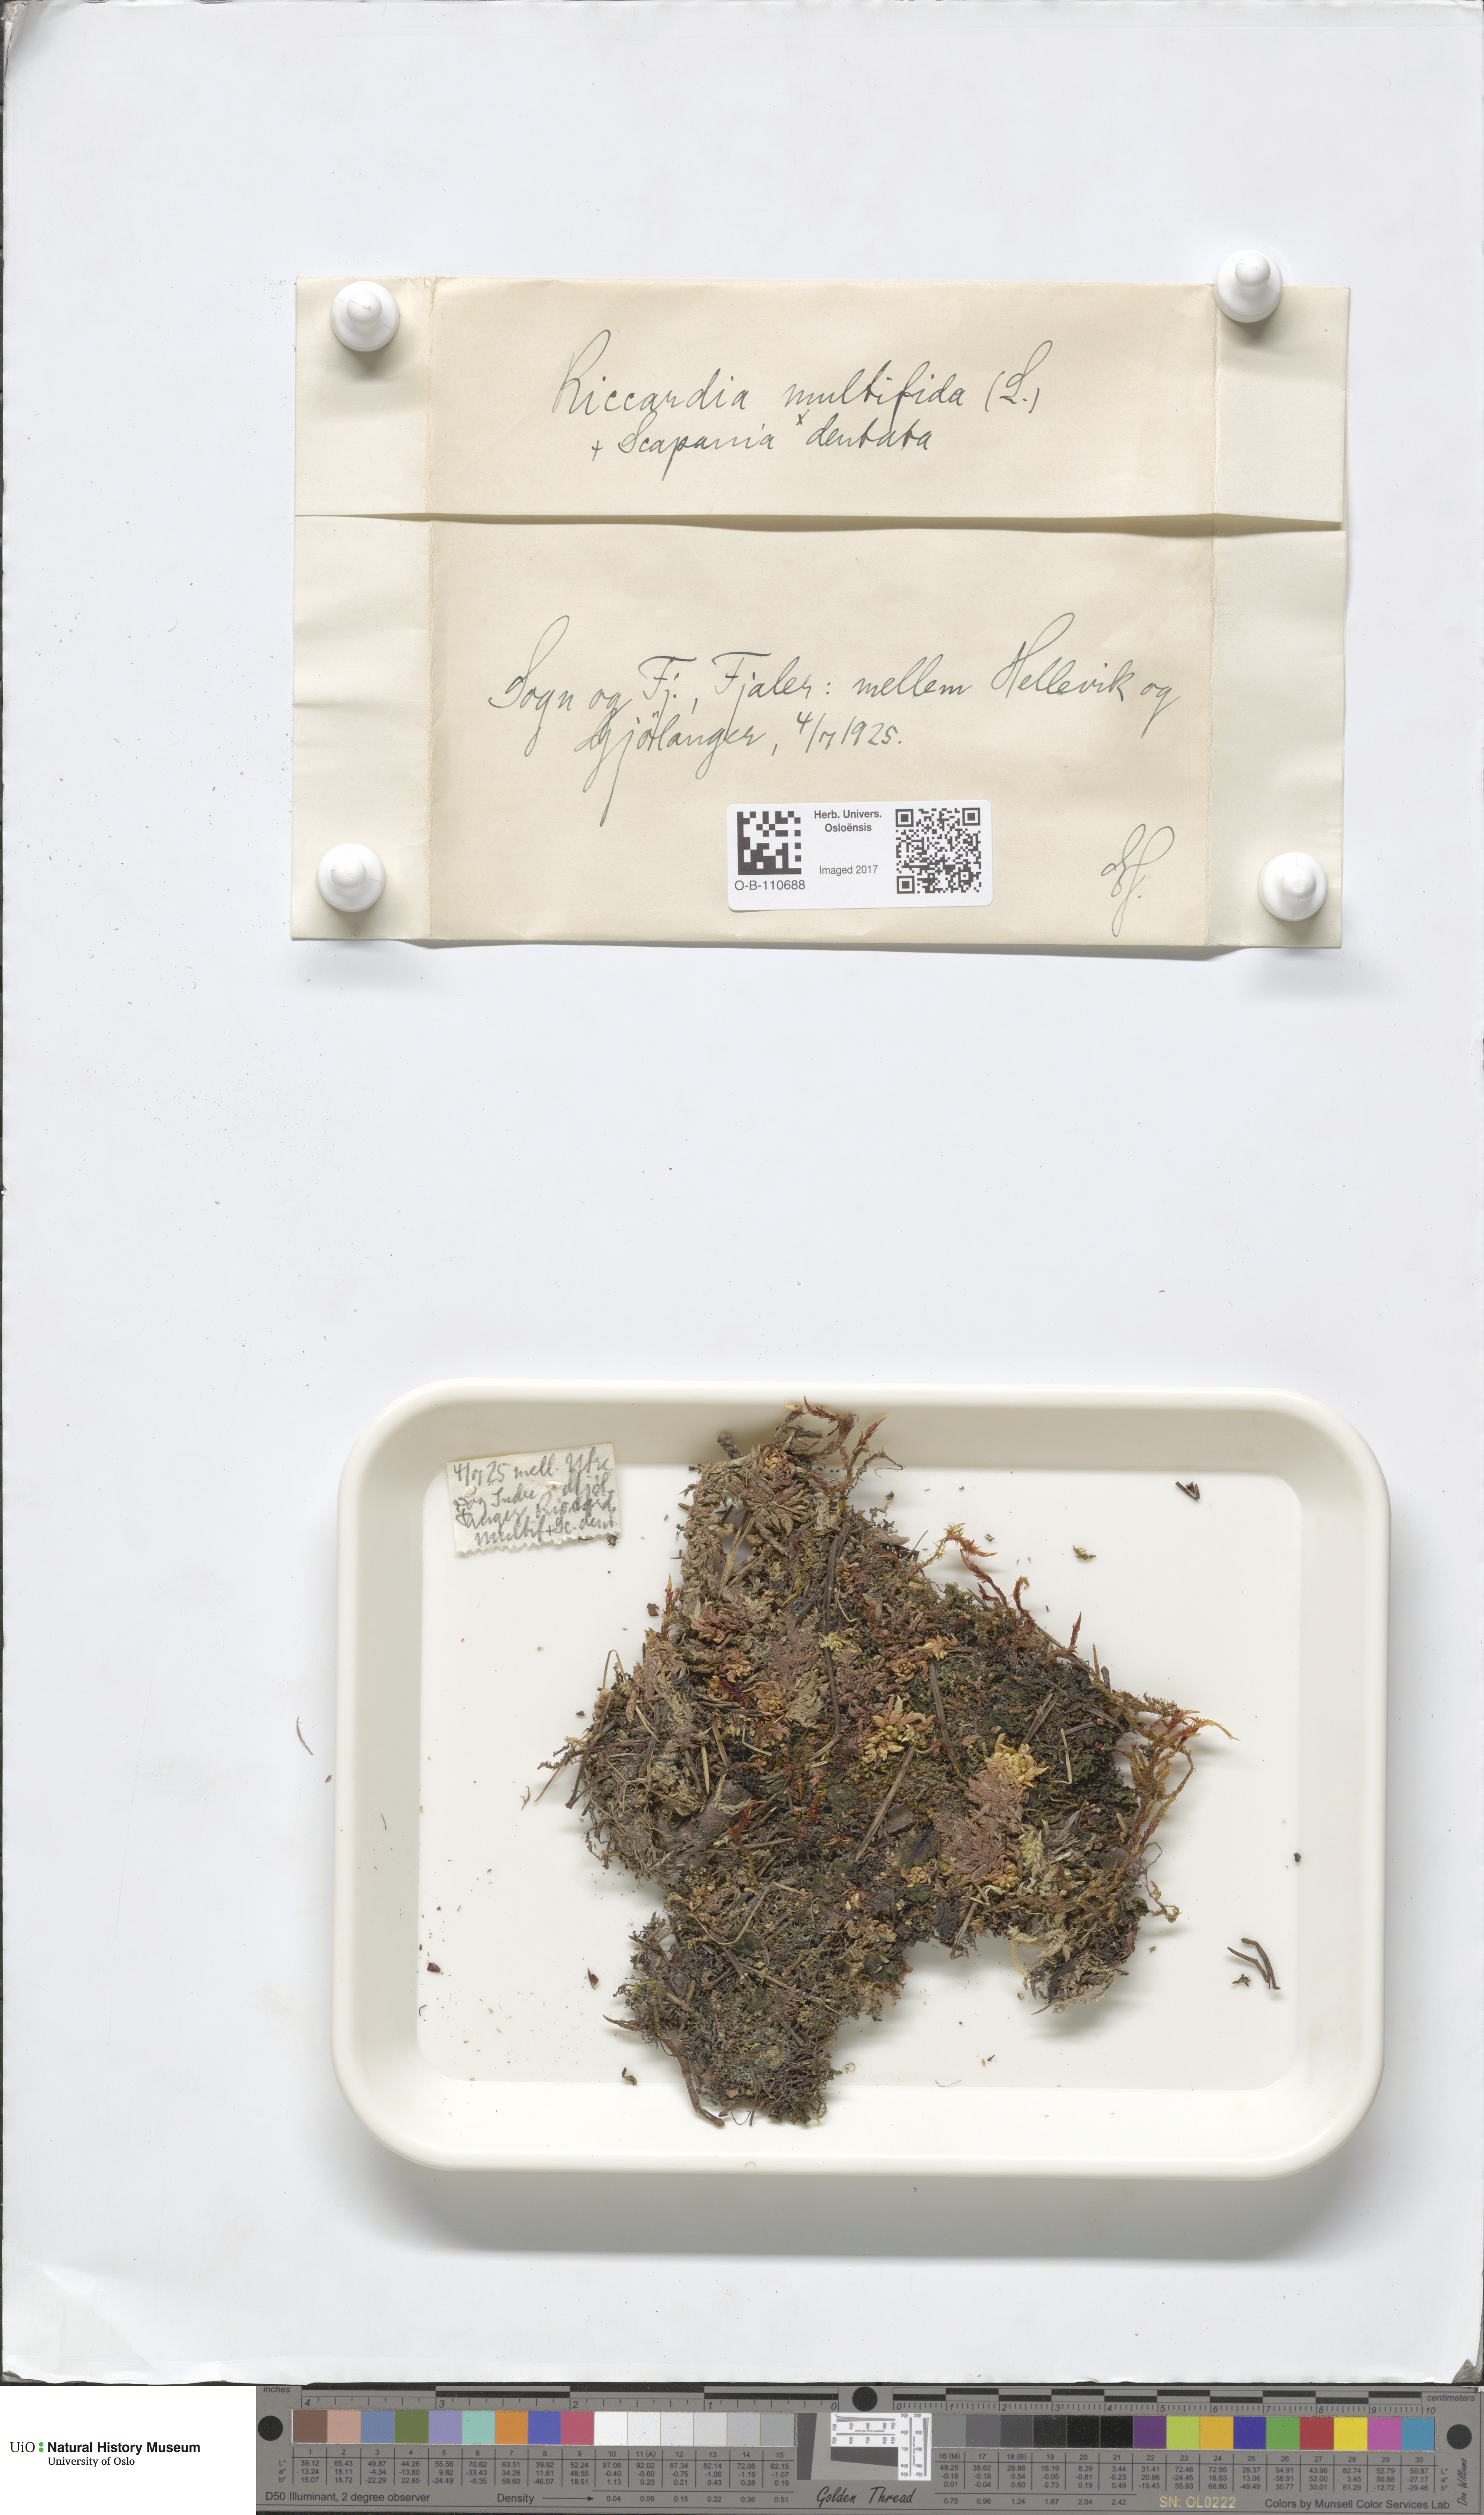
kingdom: Plantae
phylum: Marchantiophyta
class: Jungermanniopsida
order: Metzgeriales
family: Aneuraceae
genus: Riccardia
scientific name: Riccardia palmata
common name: Palmate germanderwort
